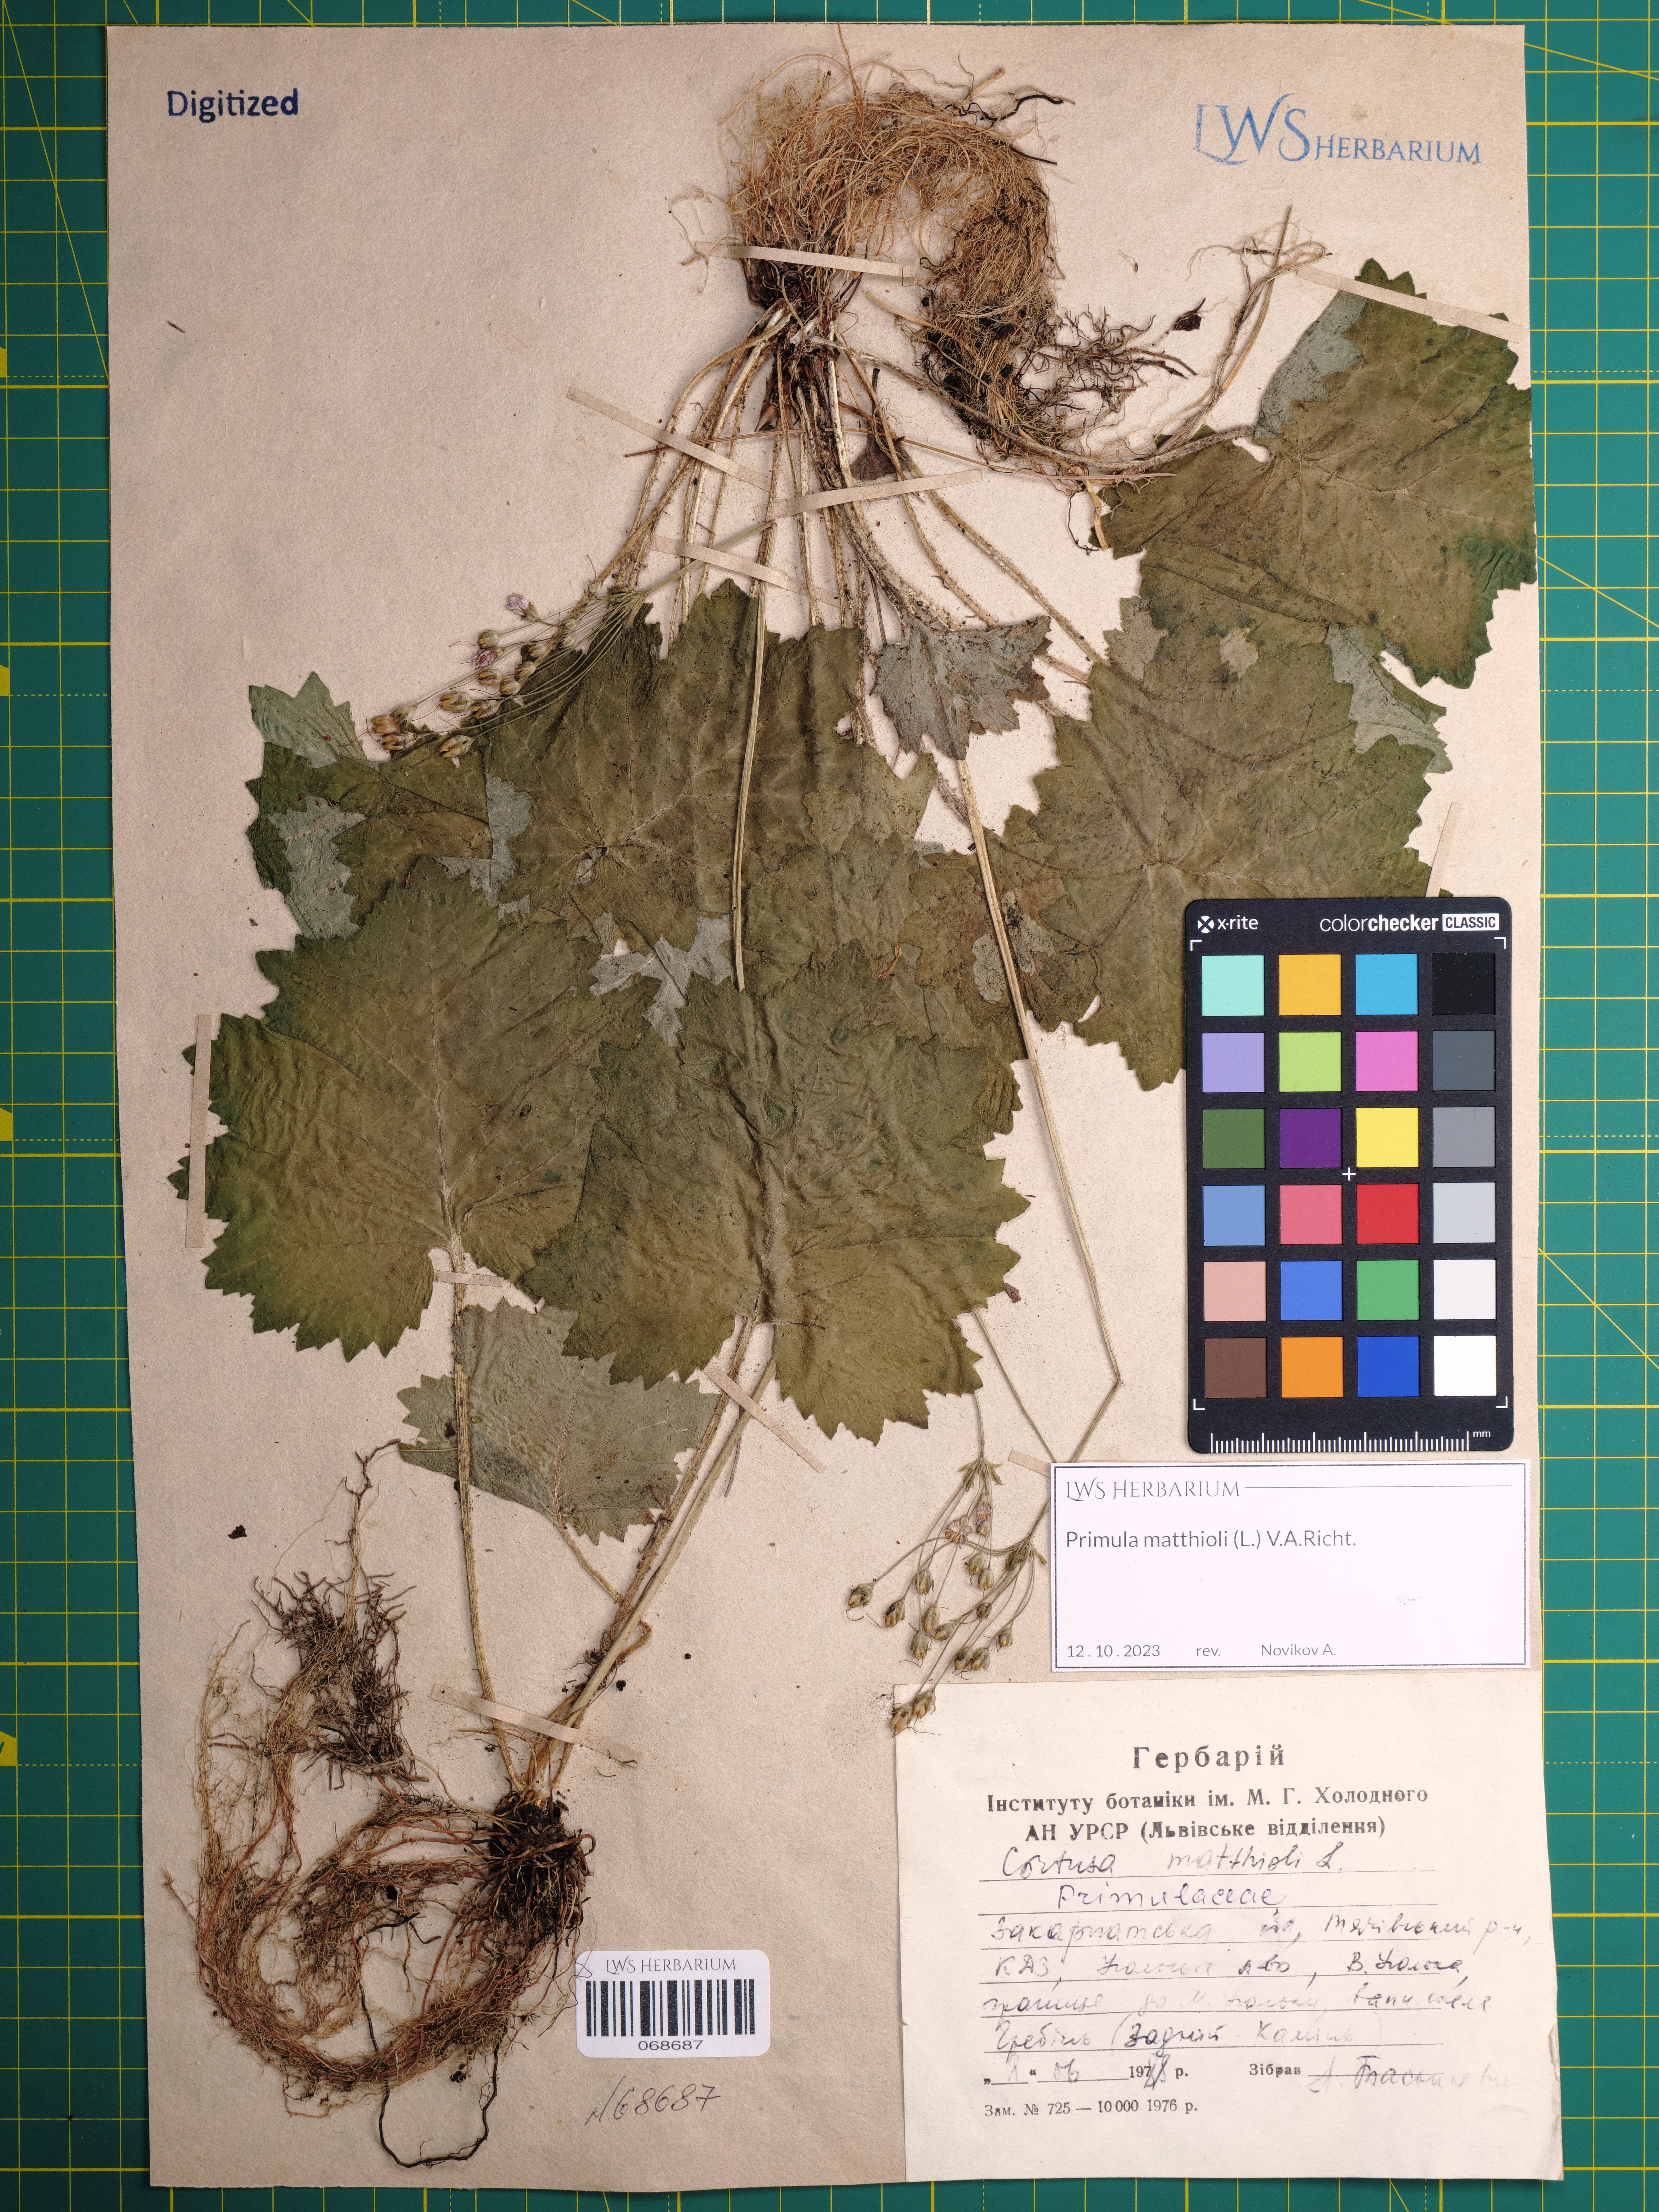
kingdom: Plantae
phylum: Tracheophyta
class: Magnoliopsida
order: Ericales
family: Primulaceae
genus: Primula
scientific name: Primula matthioli
